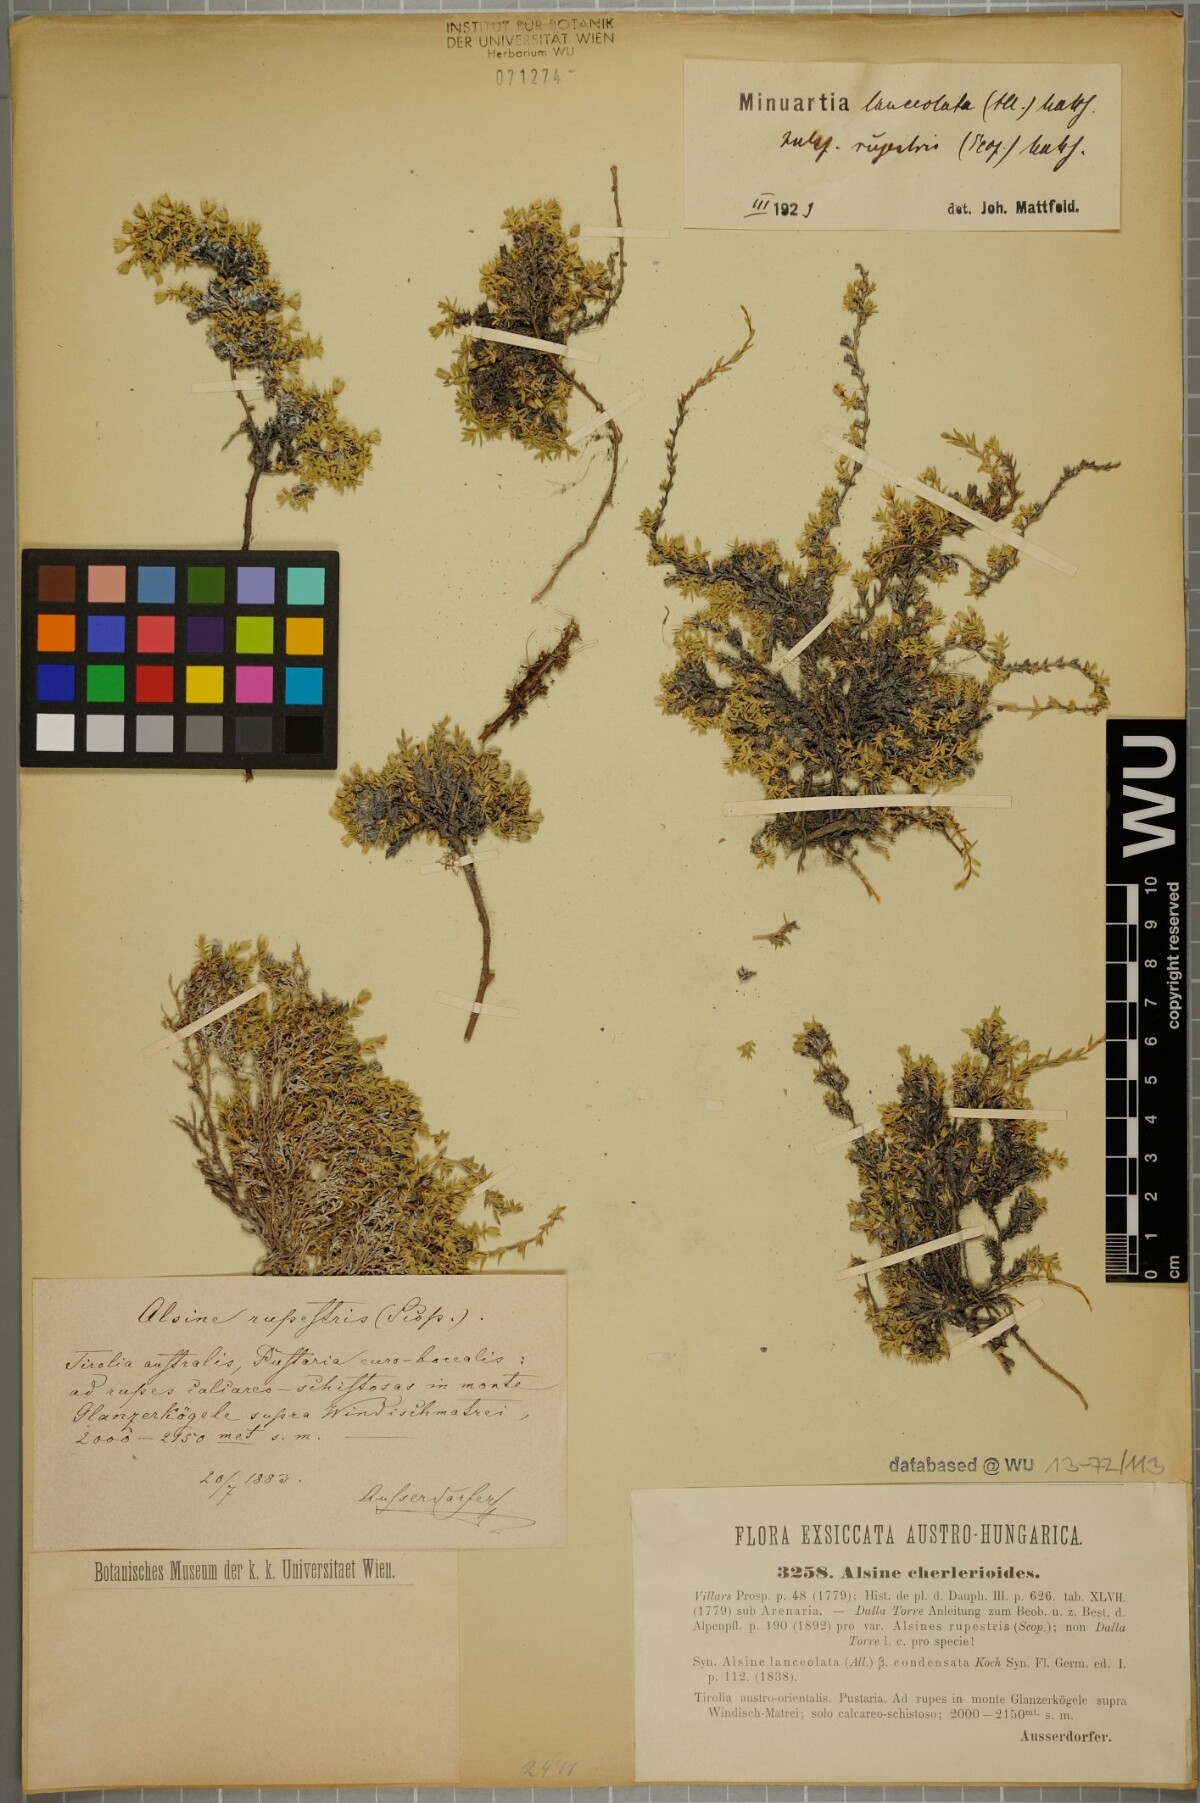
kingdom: Plantae
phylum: Tracheophyta
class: Magnoliopsida
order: Caryophyllales
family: Caryophyllaceae
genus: Facchinia
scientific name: Facchinia rupestris
